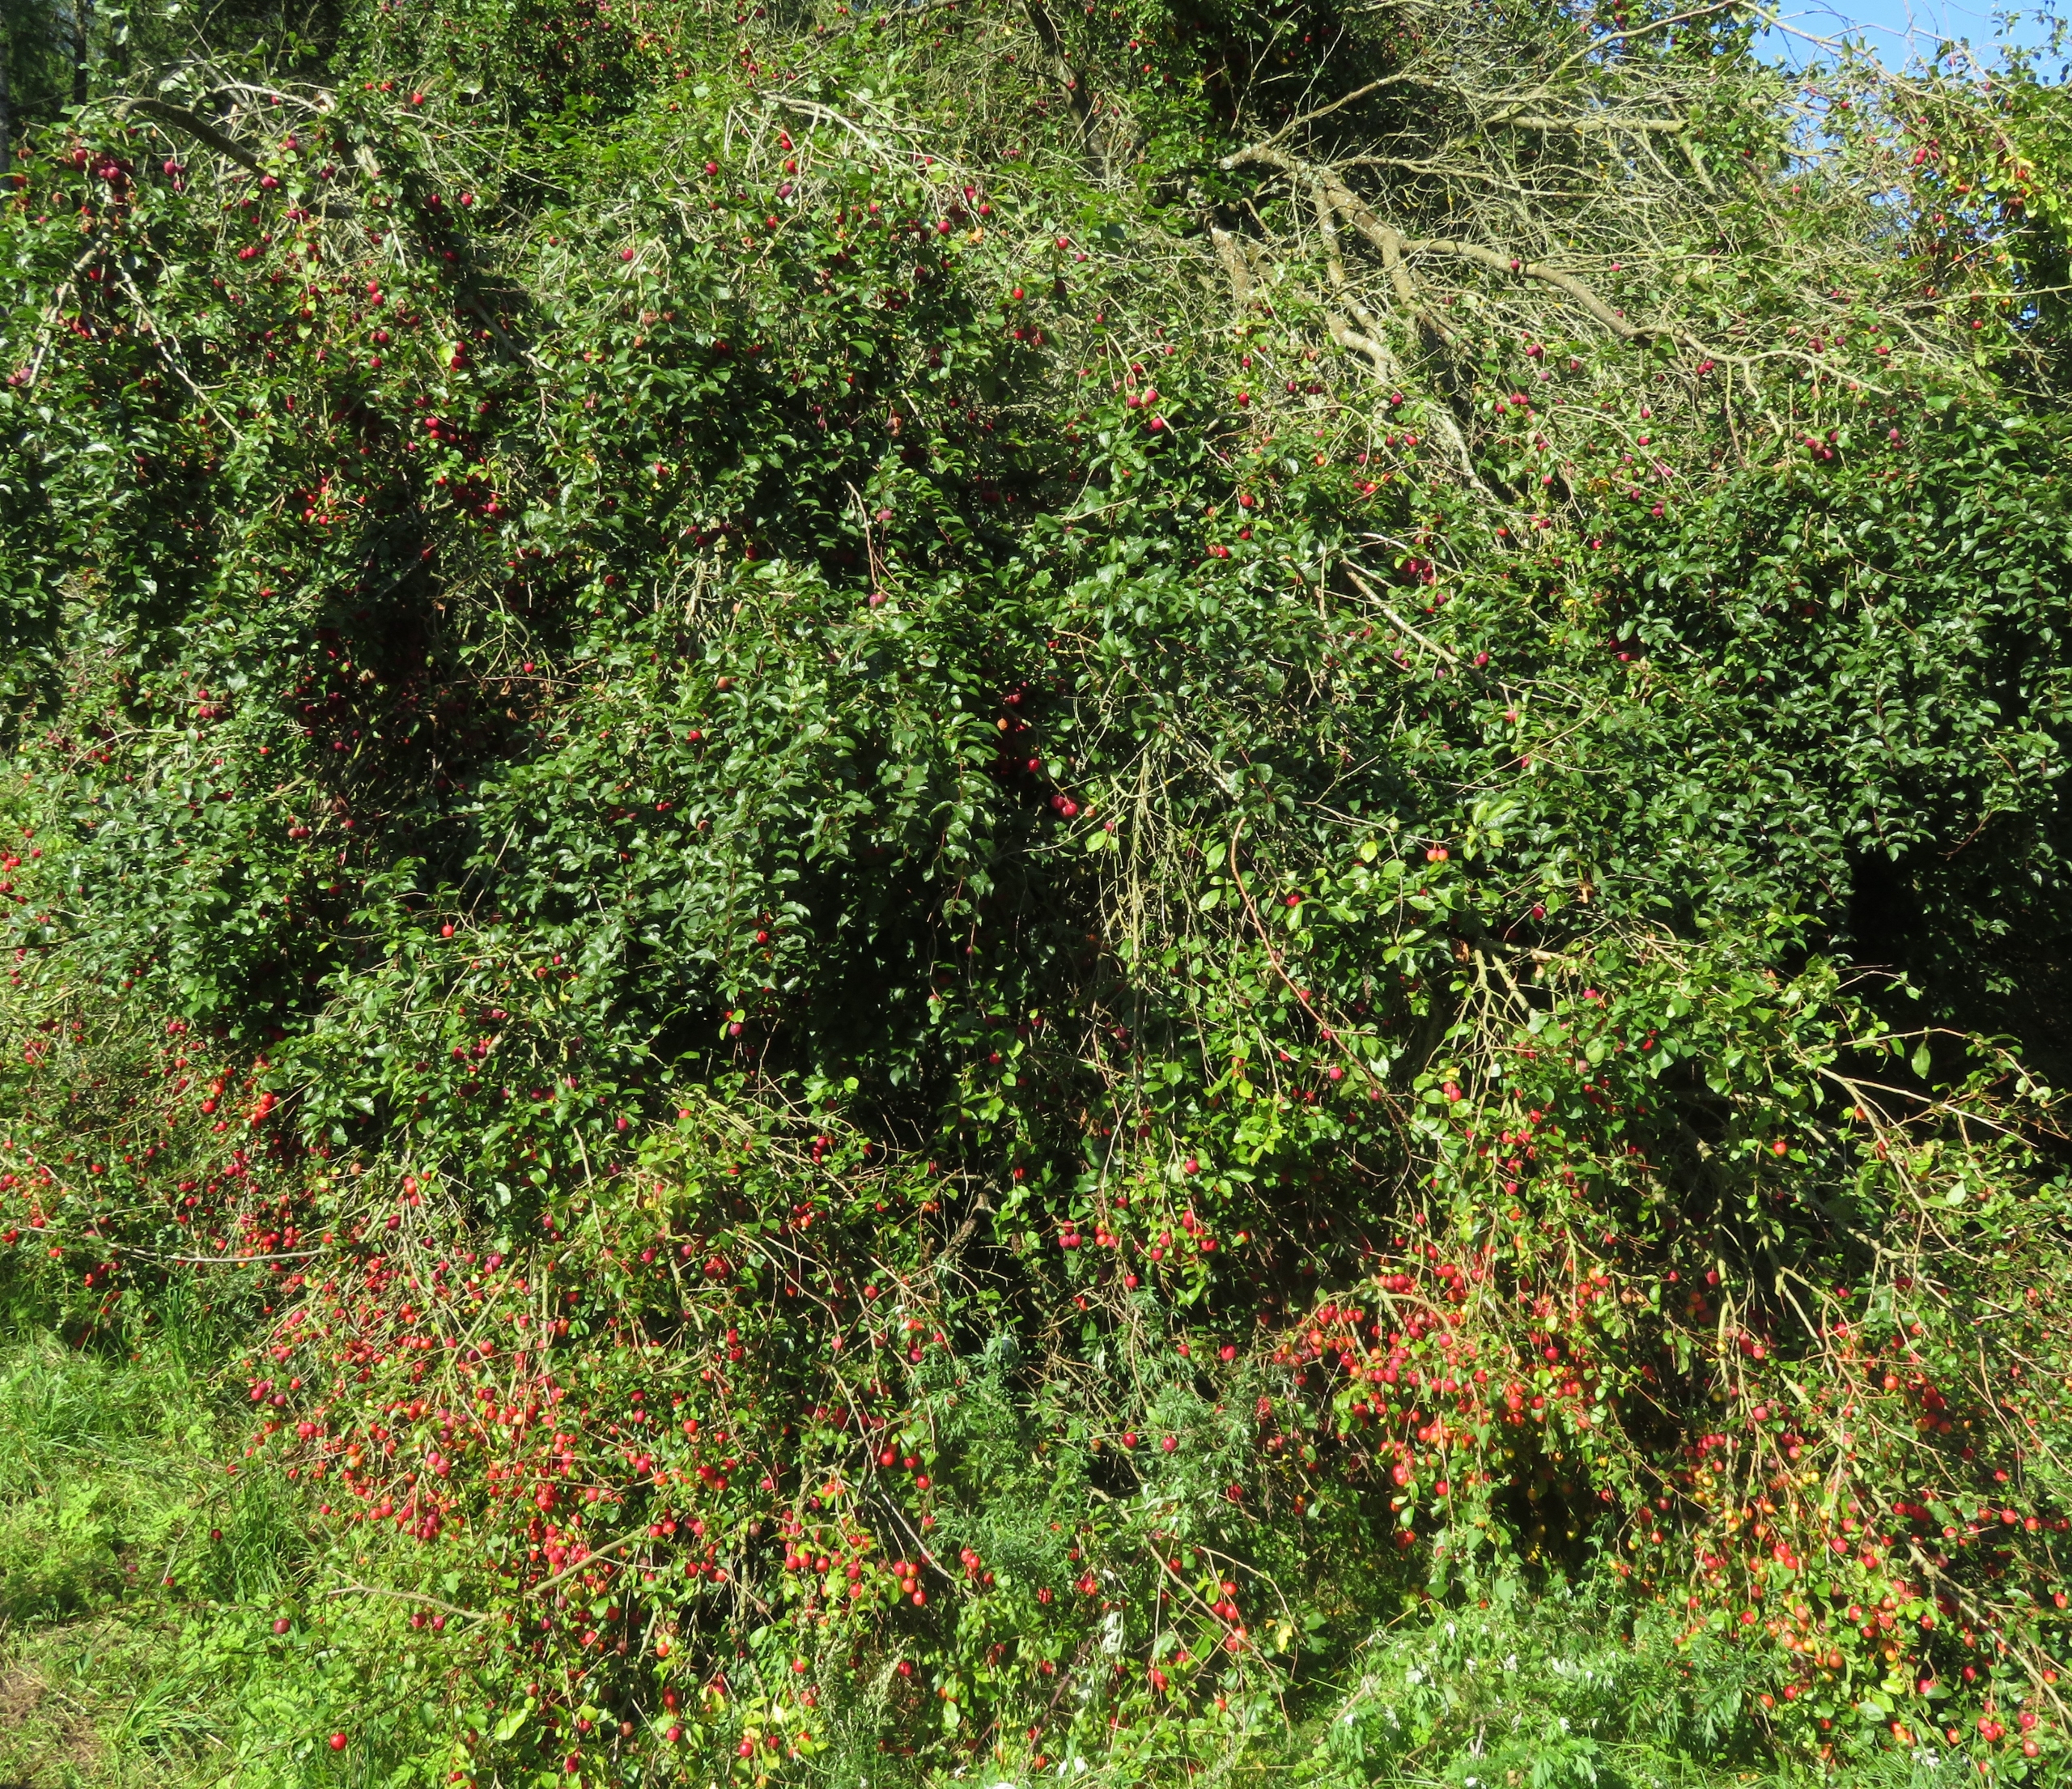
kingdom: Plantae
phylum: Tracheophyta
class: Magnoliopsida
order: Rosales
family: Rosaceae
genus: Prunus
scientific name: Prunus cerasifera
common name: Mirabel
